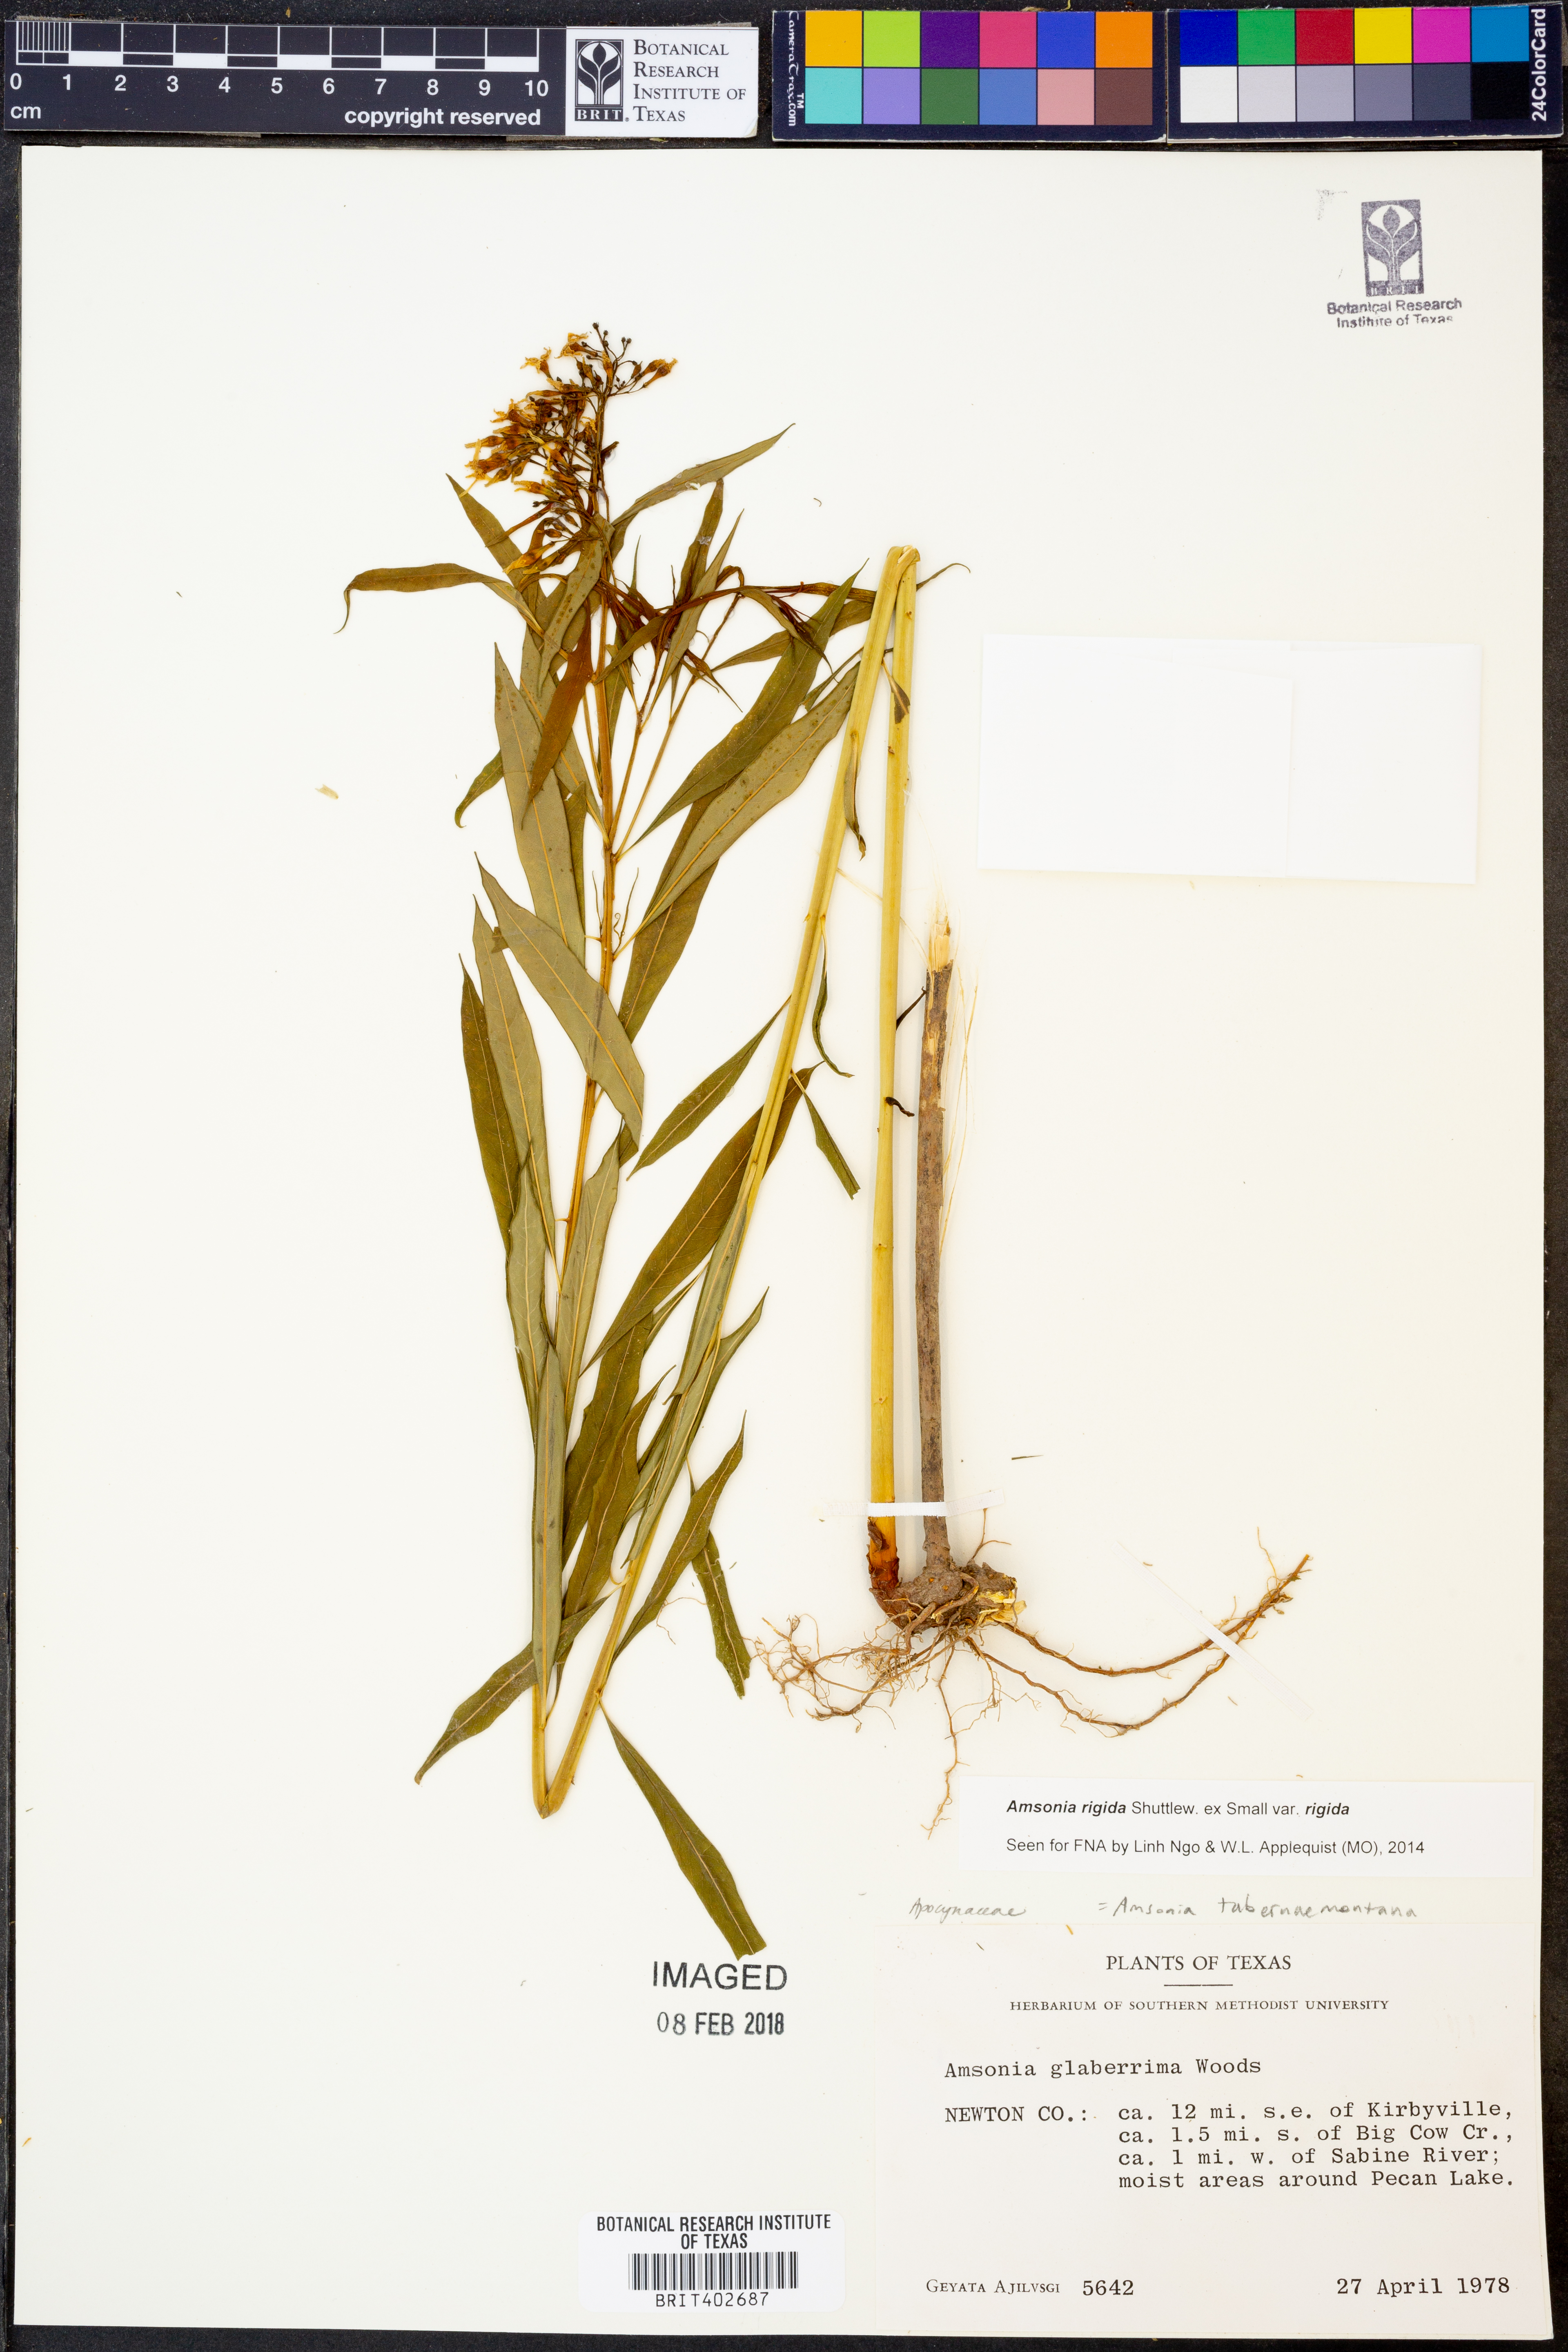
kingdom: Plantae
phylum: Tracheophyta
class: Magnoliopsida
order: Gentianales
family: Apocynaceae
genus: Amsonia
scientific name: Amsonia rigida
